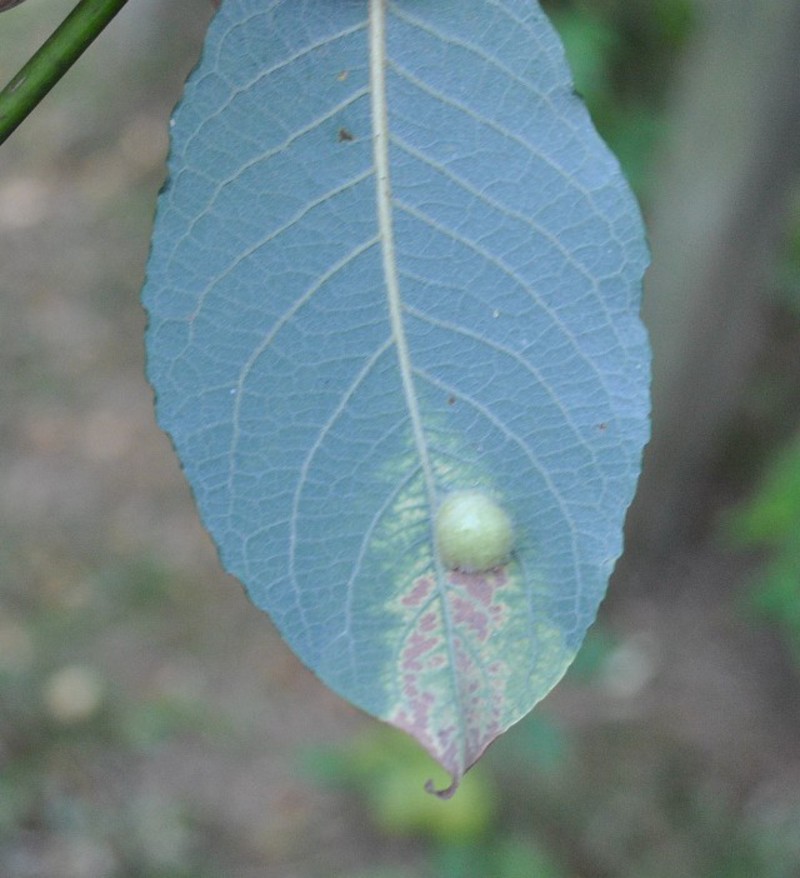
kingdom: Animalia
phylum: Arthropoda
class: Insecta
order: Hymenoptera
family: Tenthredinidae
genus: Pontania
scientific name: Pontania
